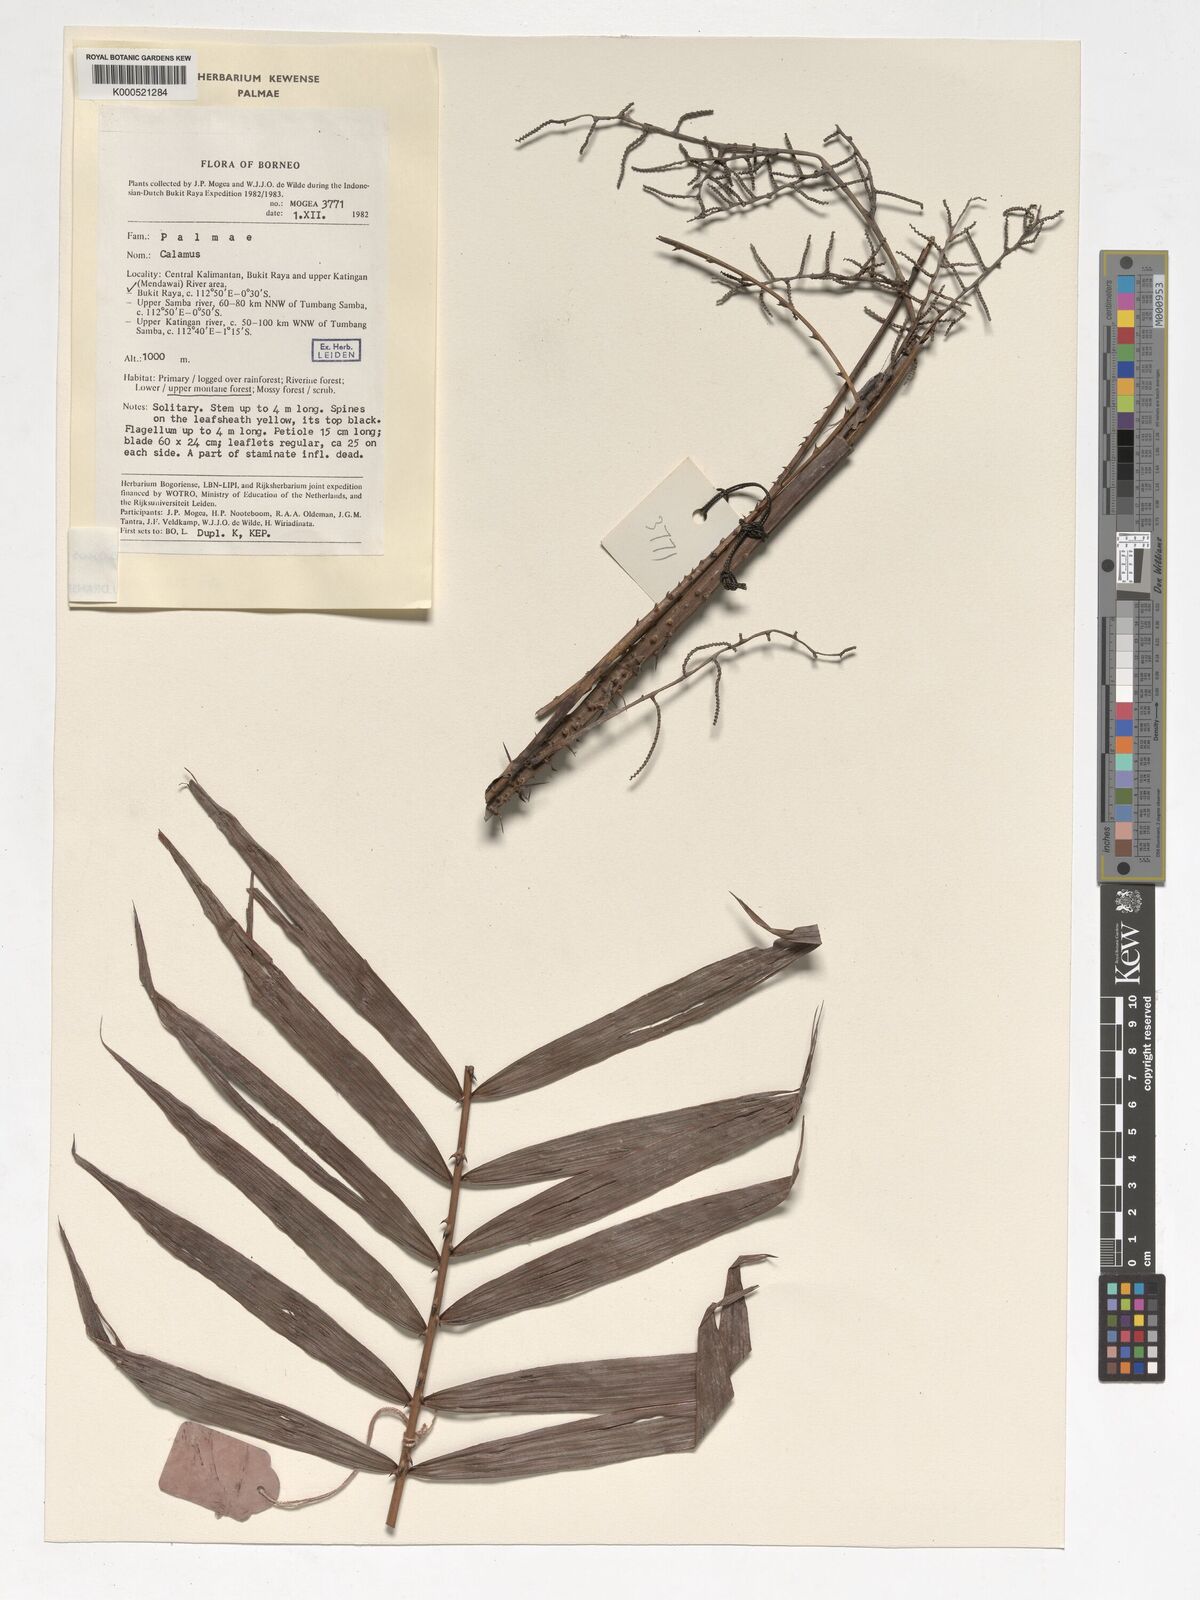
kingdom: Plantae
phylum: Tracheophyta
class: Liliopsida
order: Arecales
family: Arecaceae
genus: Calamus
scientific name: Calamus muricatus
